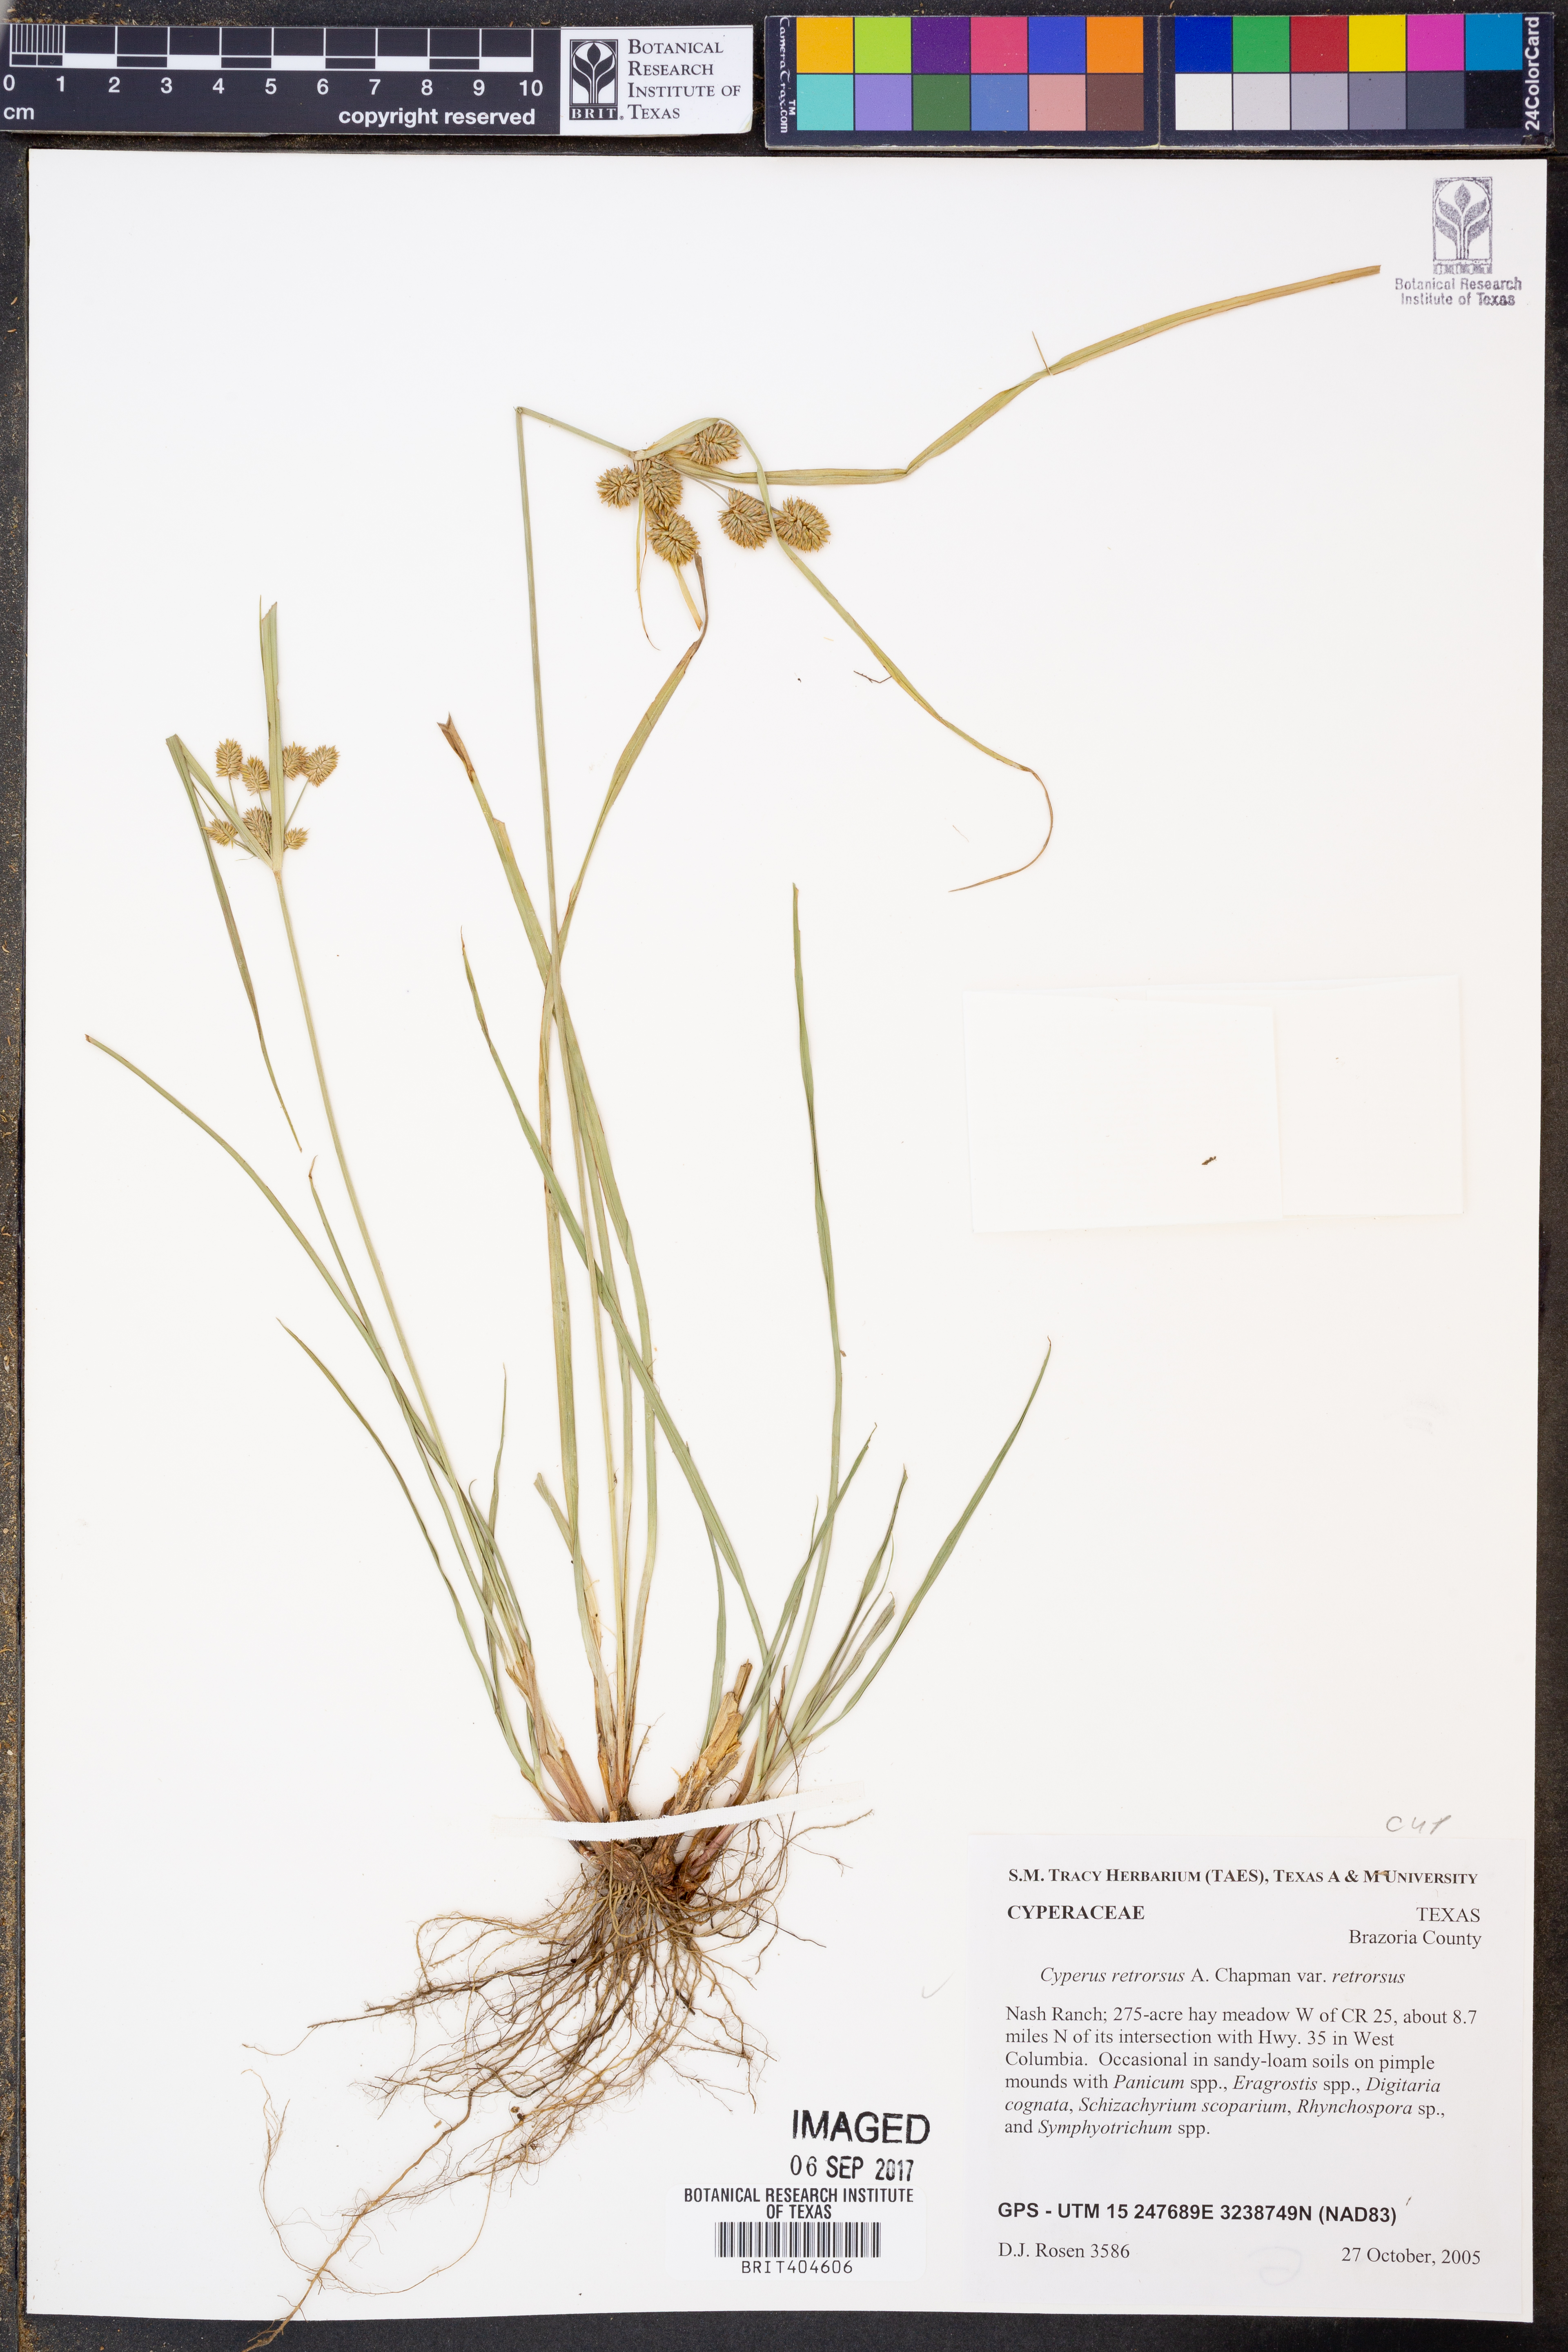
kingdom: Plantae
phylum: Tracheophyta
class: Liliopsida
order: Poales
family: Cyperaceae
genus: Cyperus
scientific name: Cyperus retrorsus
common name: Pinebarren flat sedge
